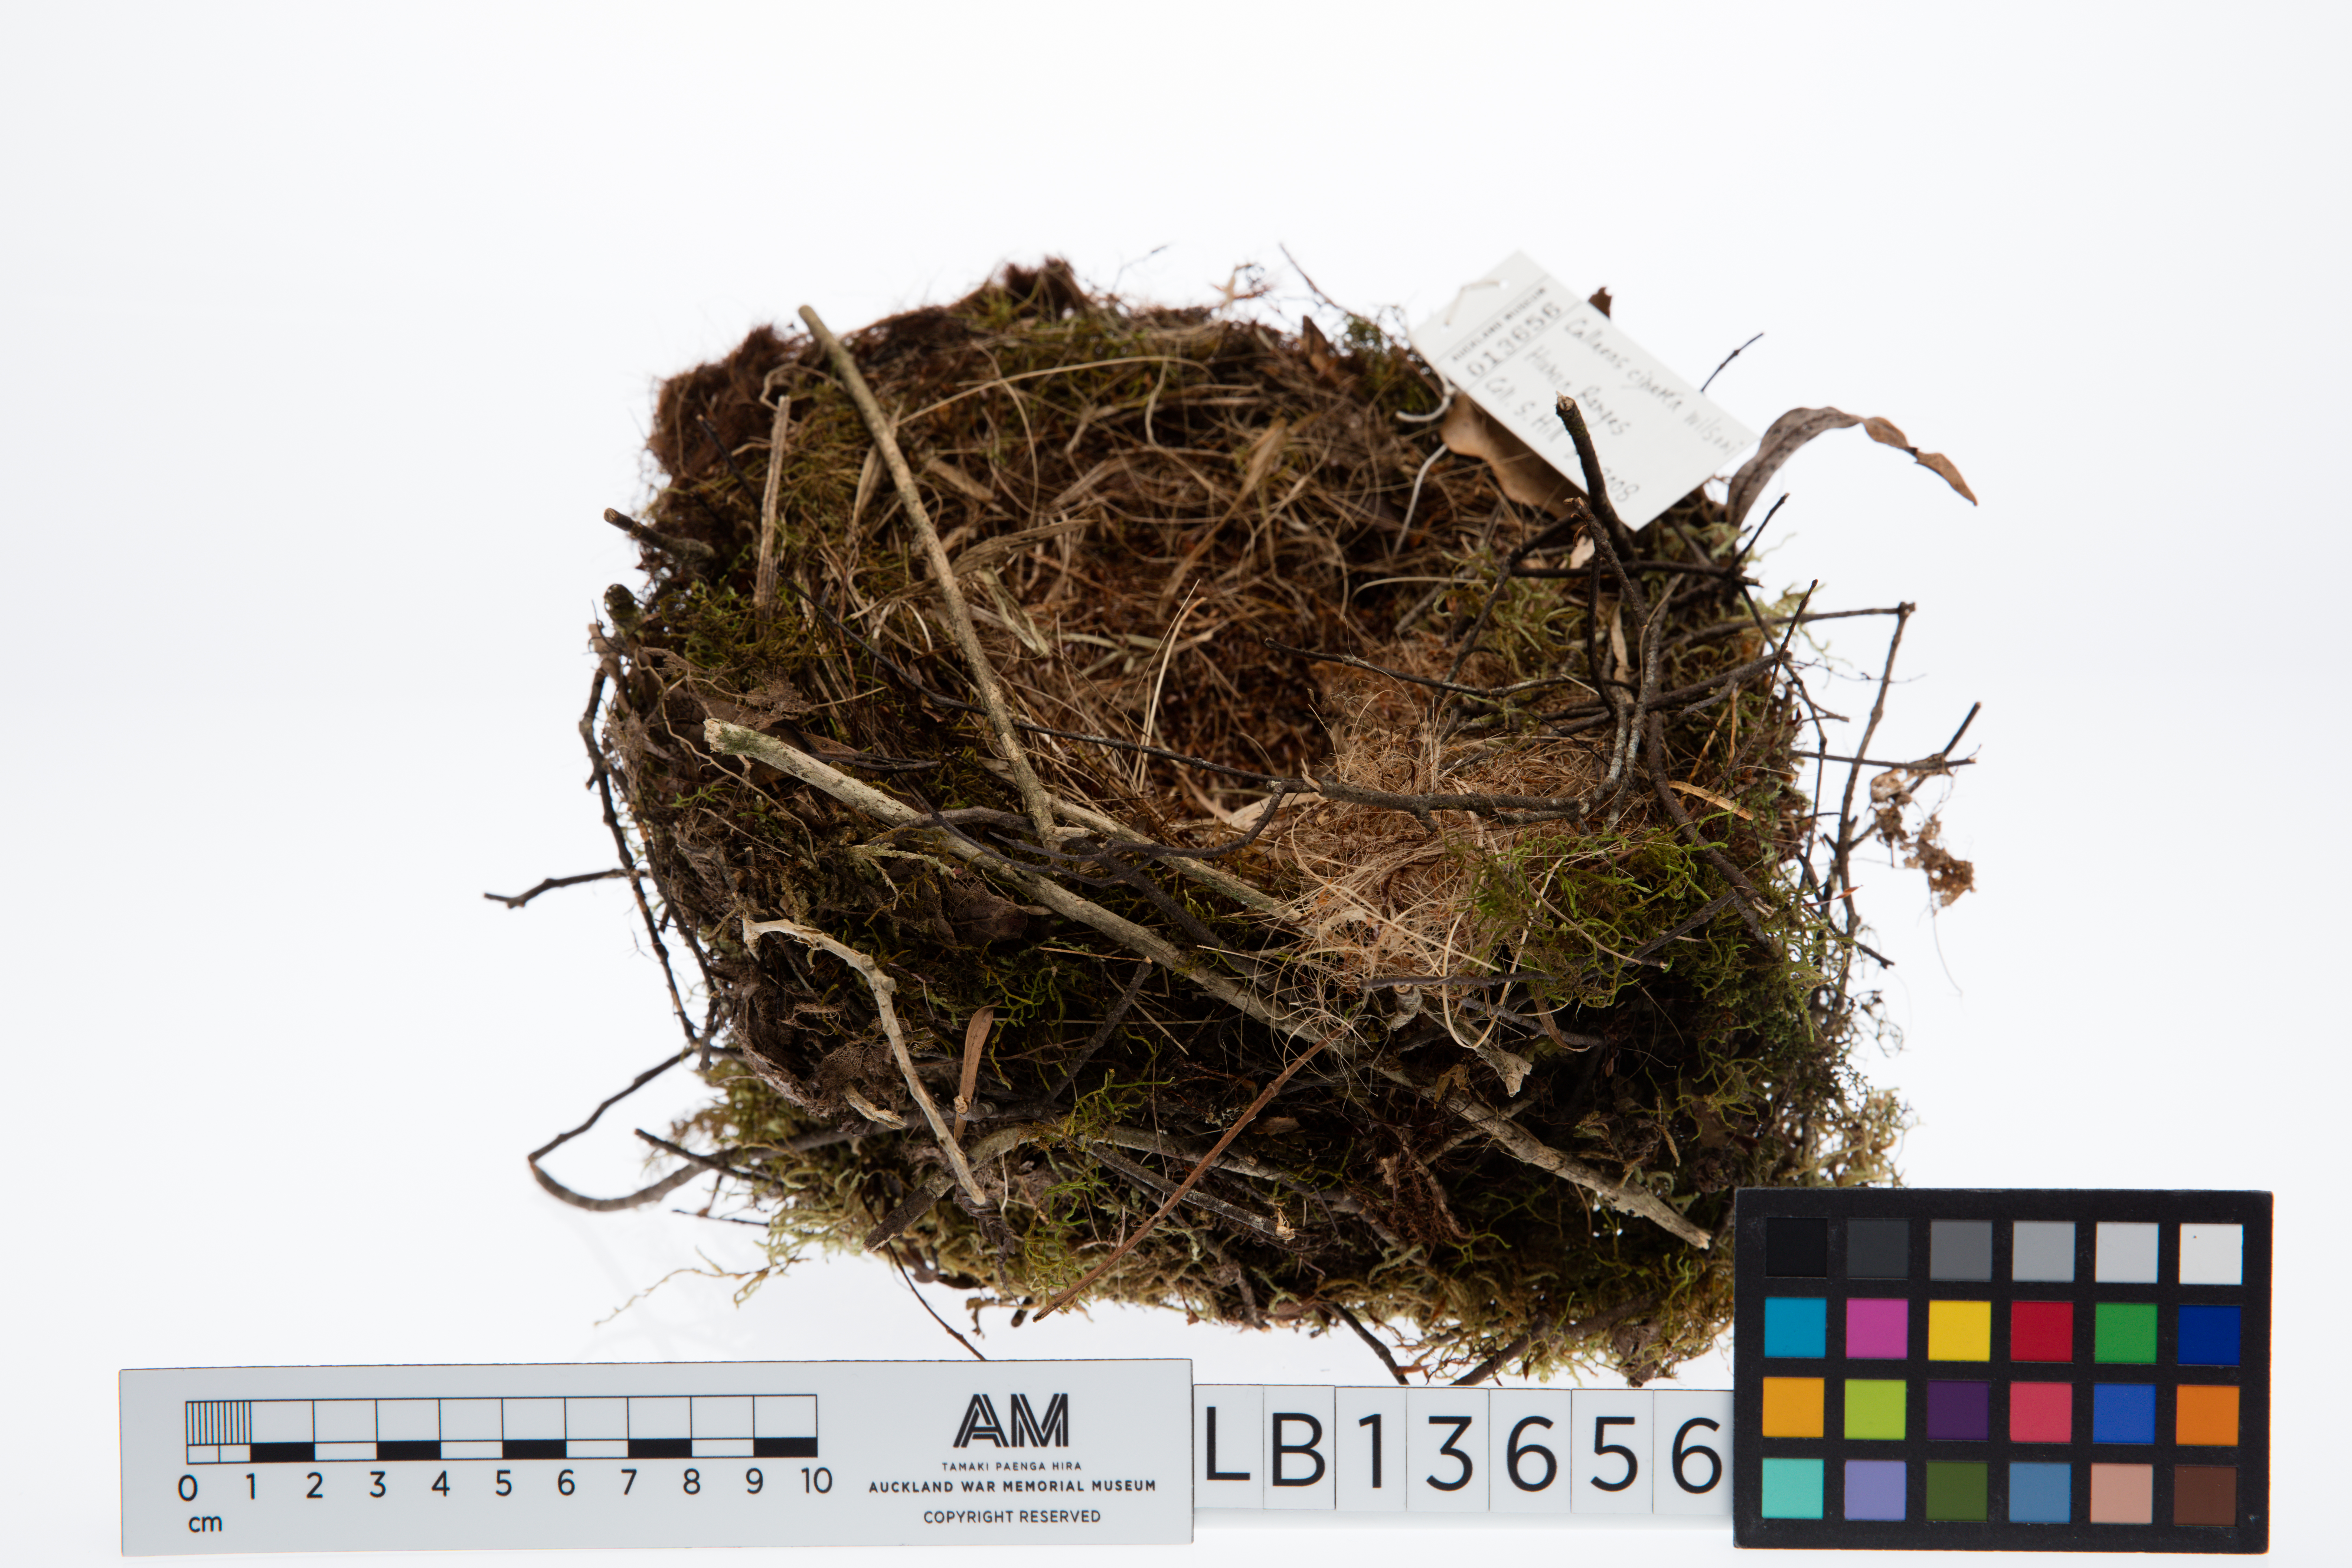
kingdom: Animalia
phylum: Chordata
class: Aves
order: Passeriformes
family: Callaeatidae
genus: Callaeas
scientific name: Callaeas cinereus
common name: South island kokako
